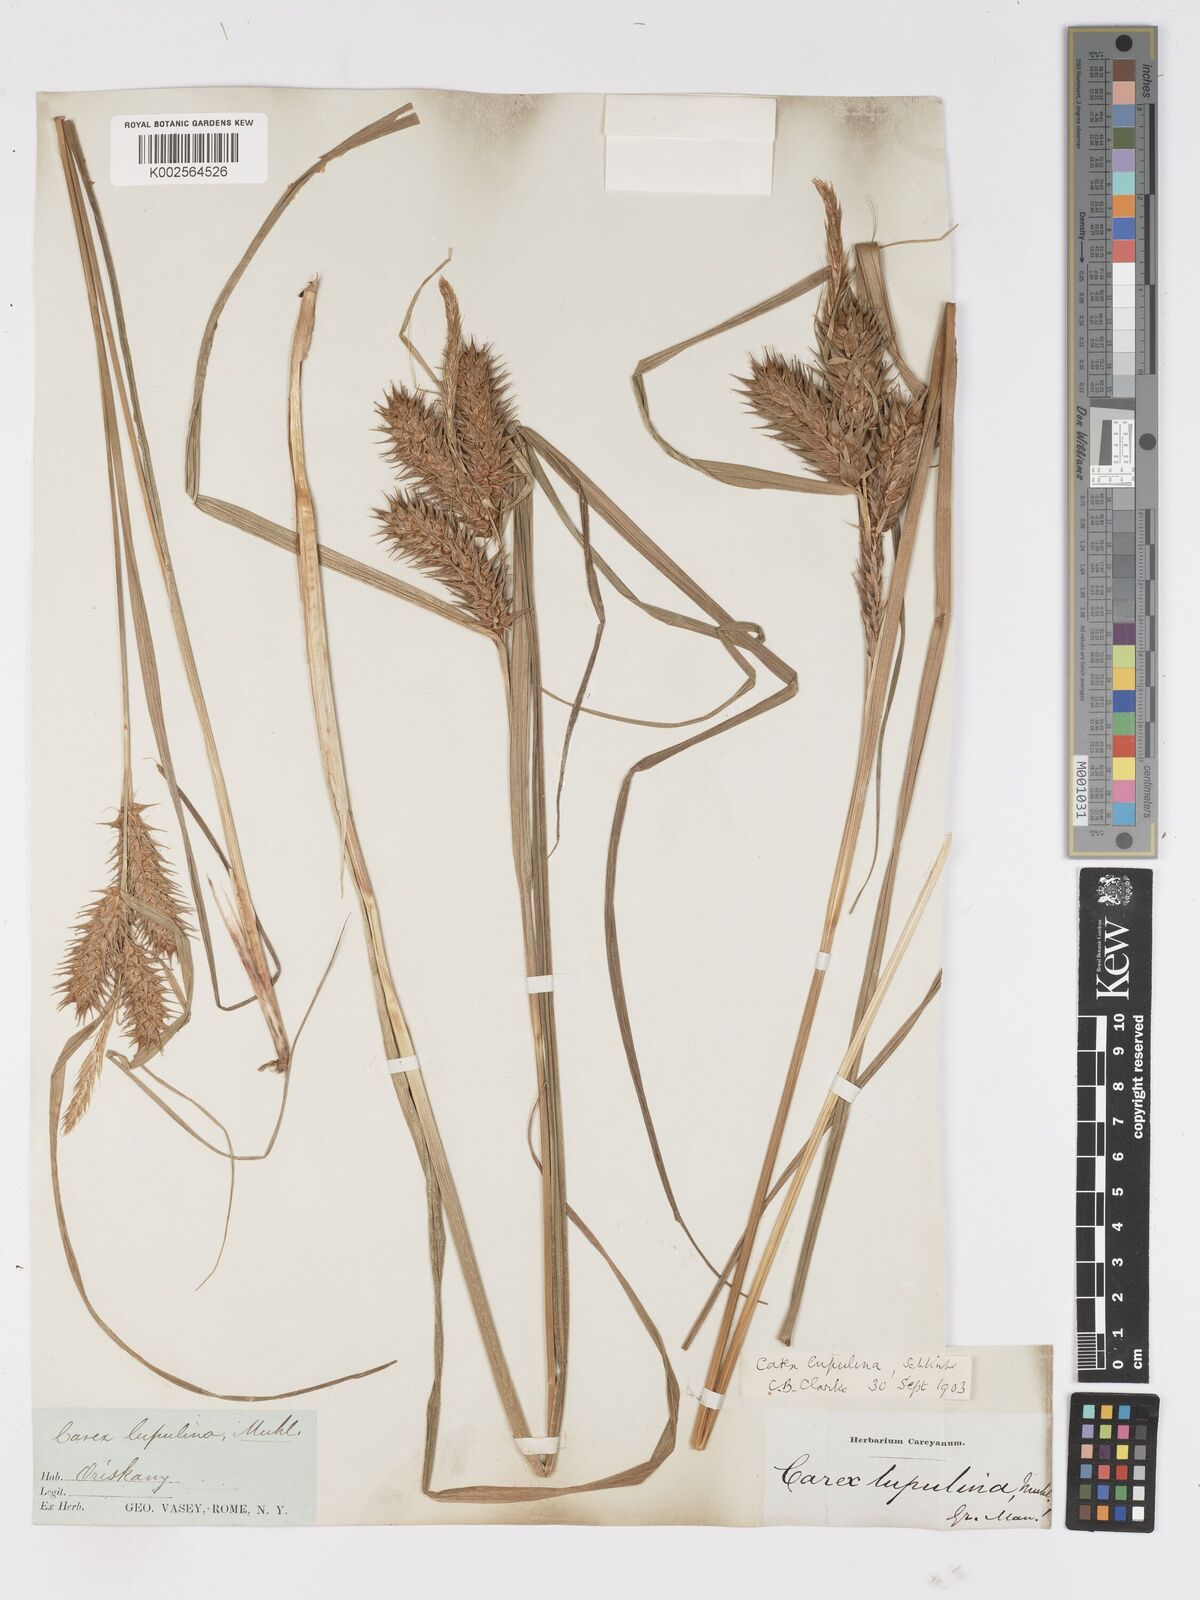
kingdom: Plantae
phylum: Tracheophyta
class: Liliopsida
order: Poales
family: Cyperaceae
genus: Carex
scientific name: Carex lupulina
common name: Hop sedge
